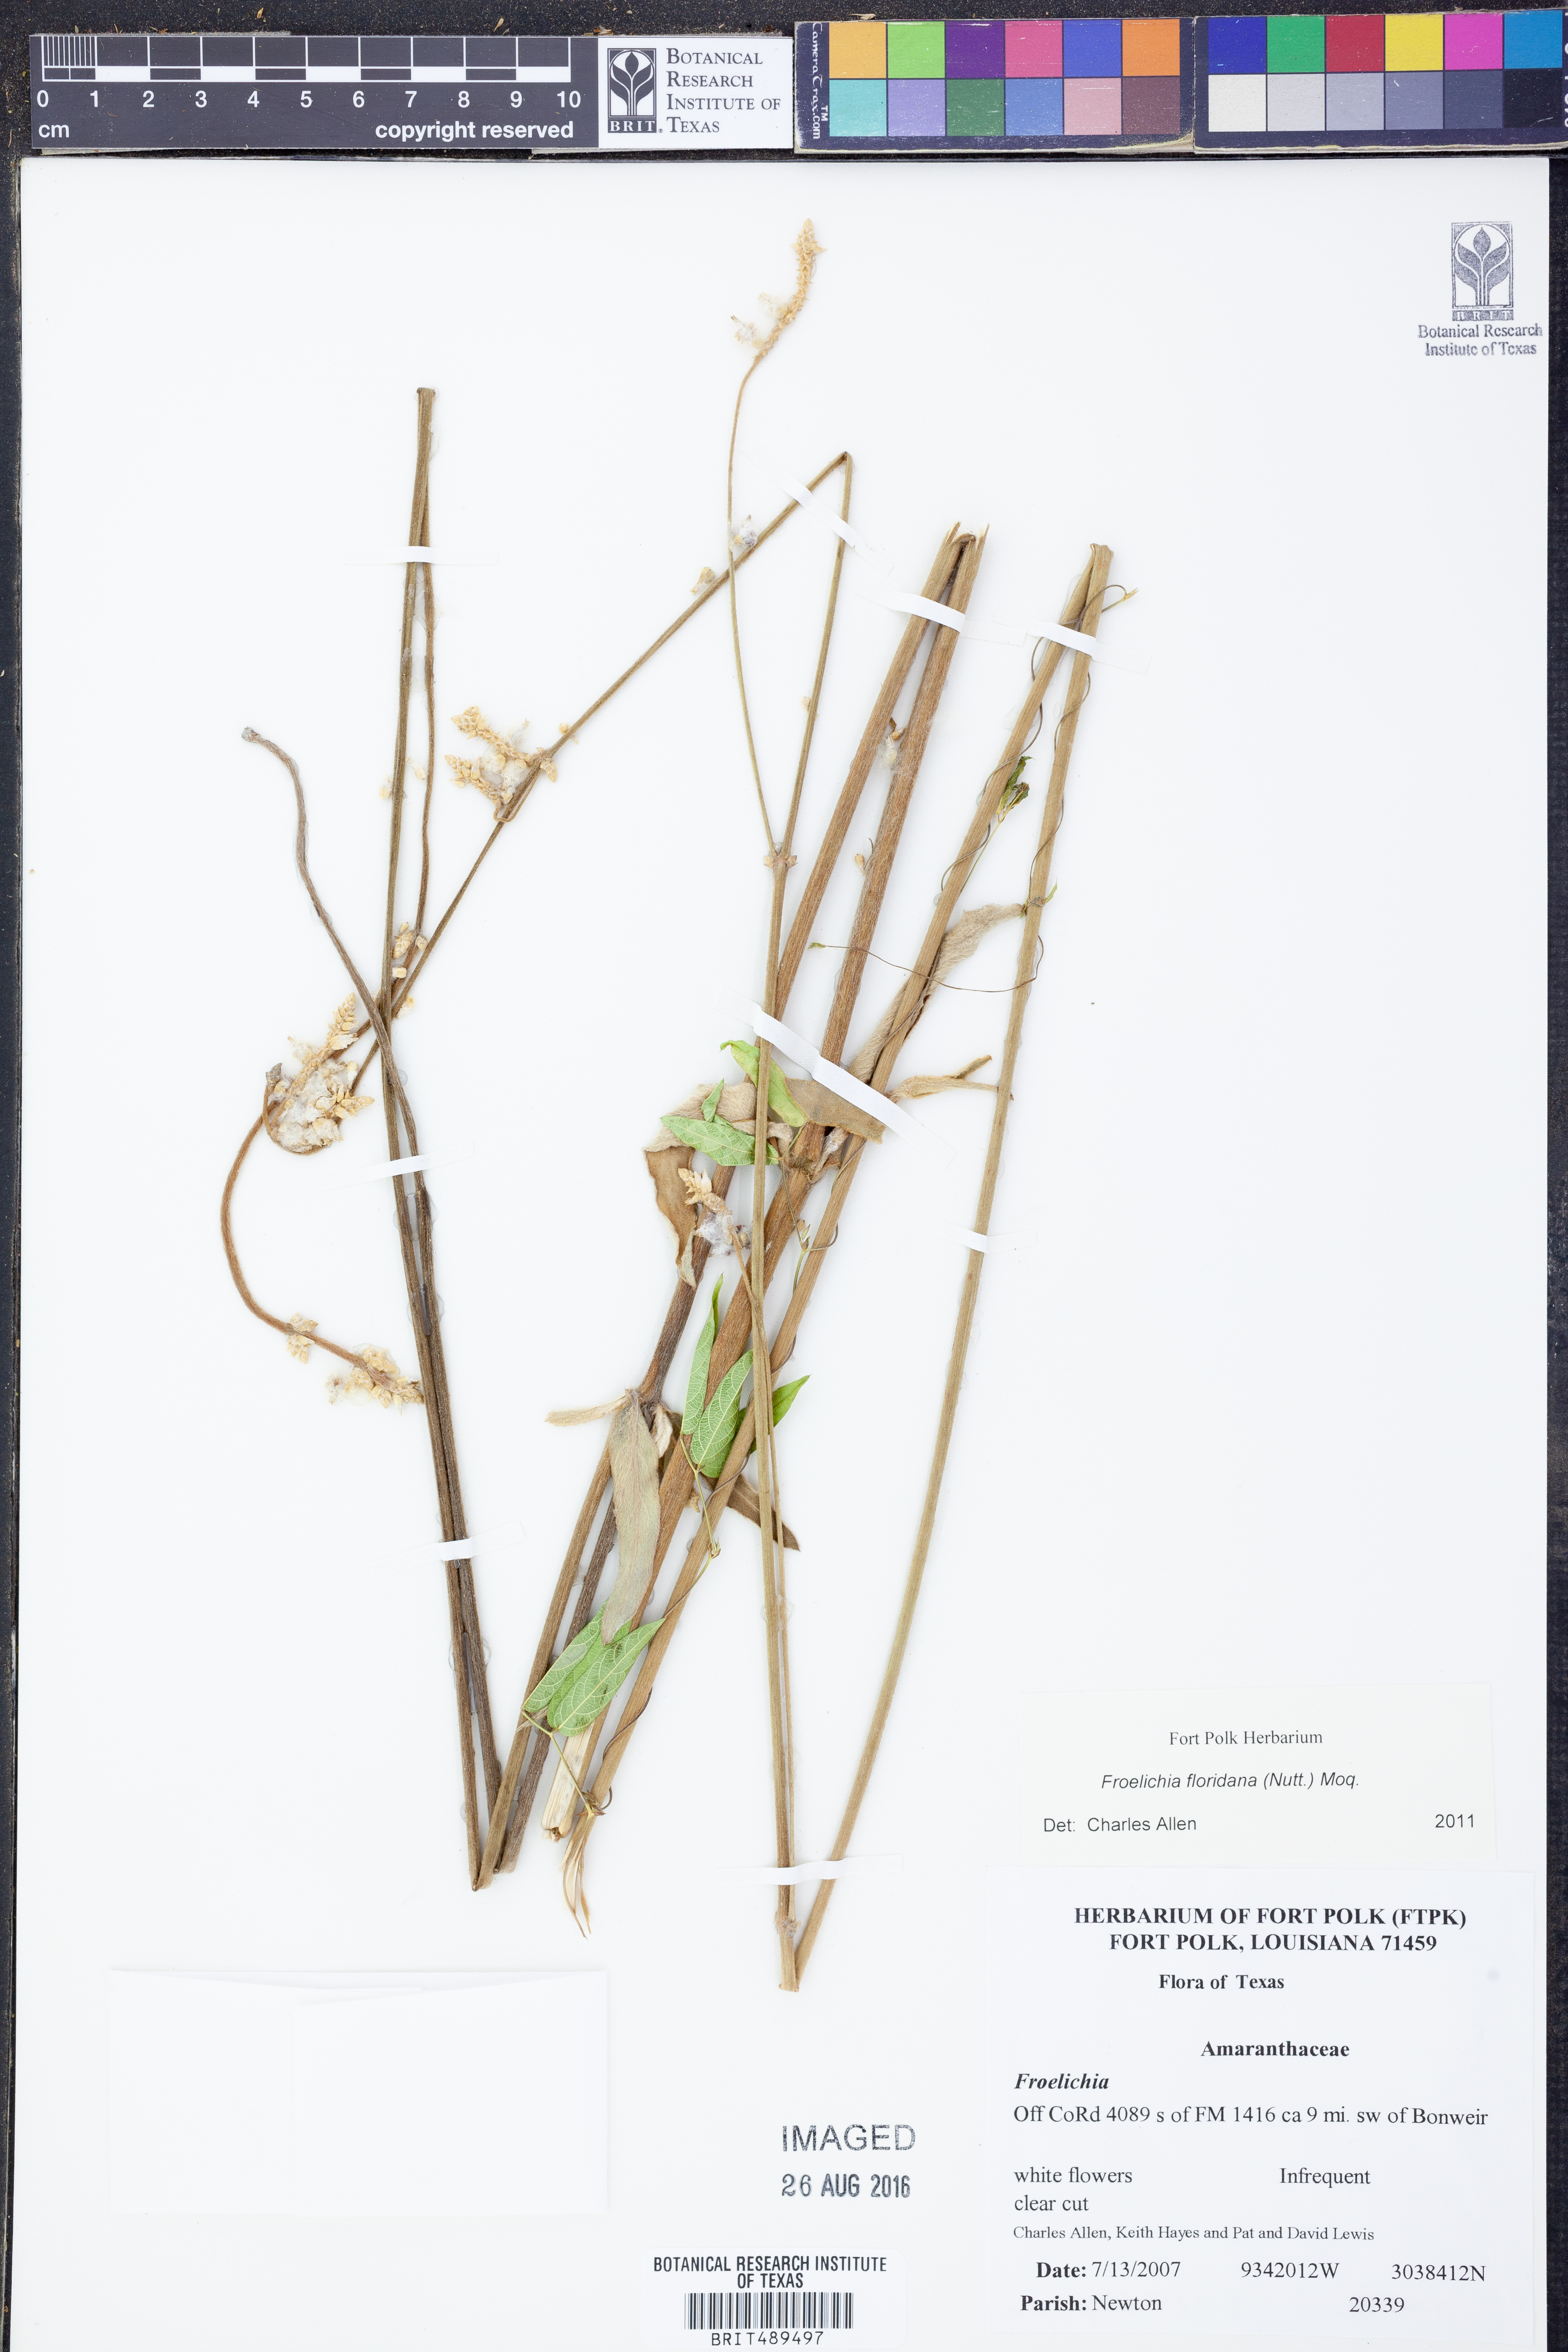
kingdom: Plantae
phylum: Tracheophyta
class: Magnoliopsida
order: Caryophyllales
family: Amaranthaceae
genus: Froelichia
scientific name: Froelichia floridana
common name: Florida snake-cotton
